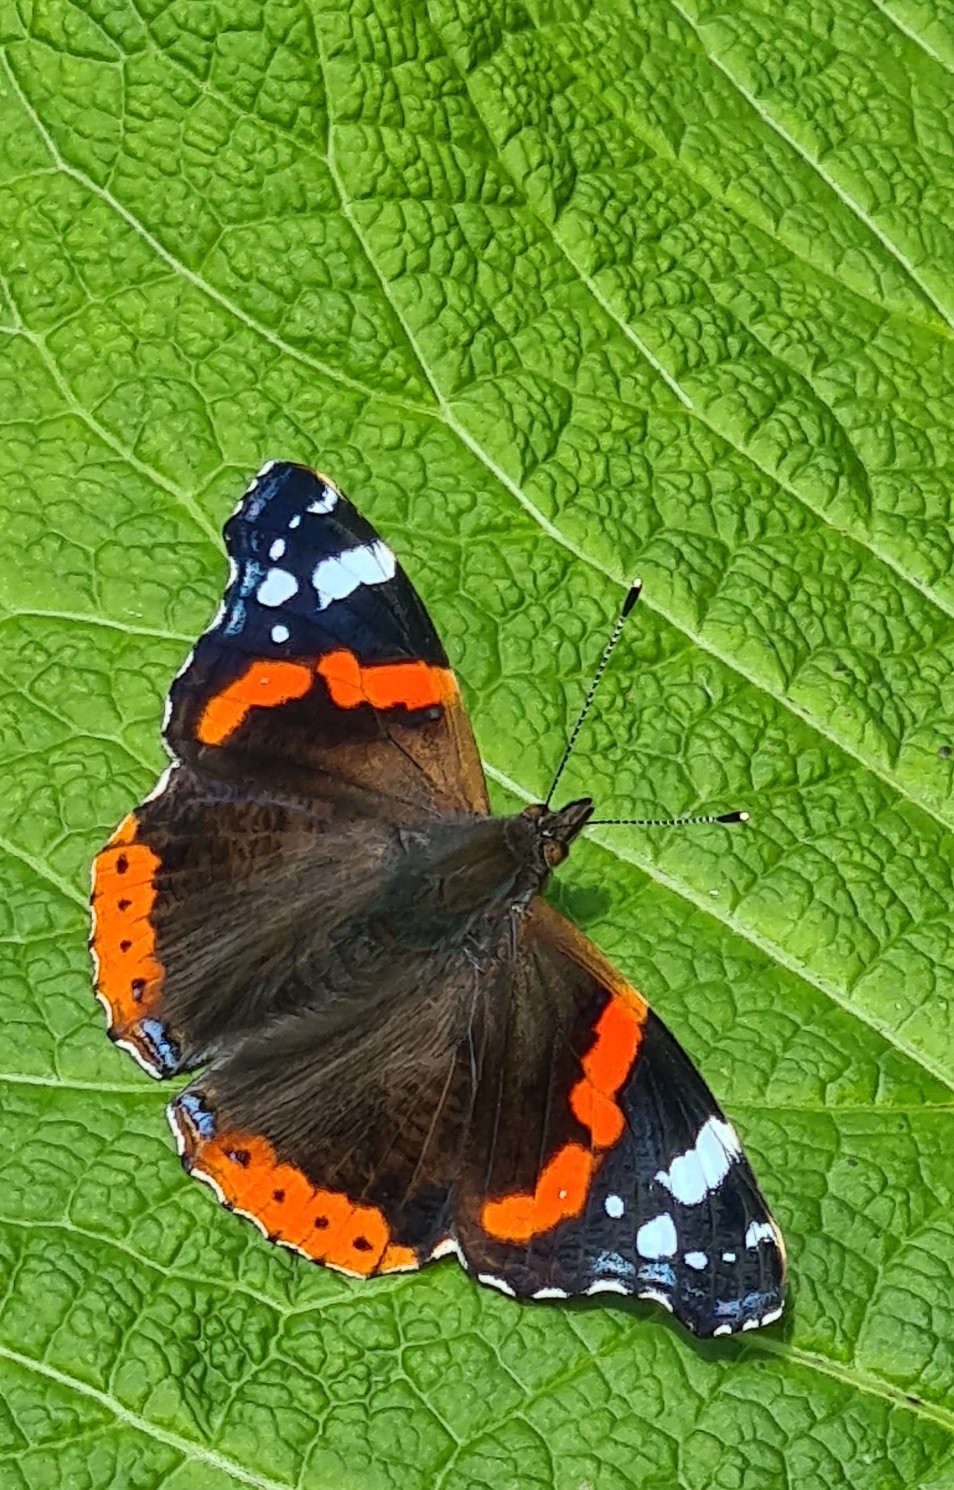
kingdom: Animalia
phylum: Arthropoda
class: Insecta
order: Lepidoptera
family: Nymphalidae
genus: Vanessa
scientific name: Vanessa atalanta
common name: Admiral
